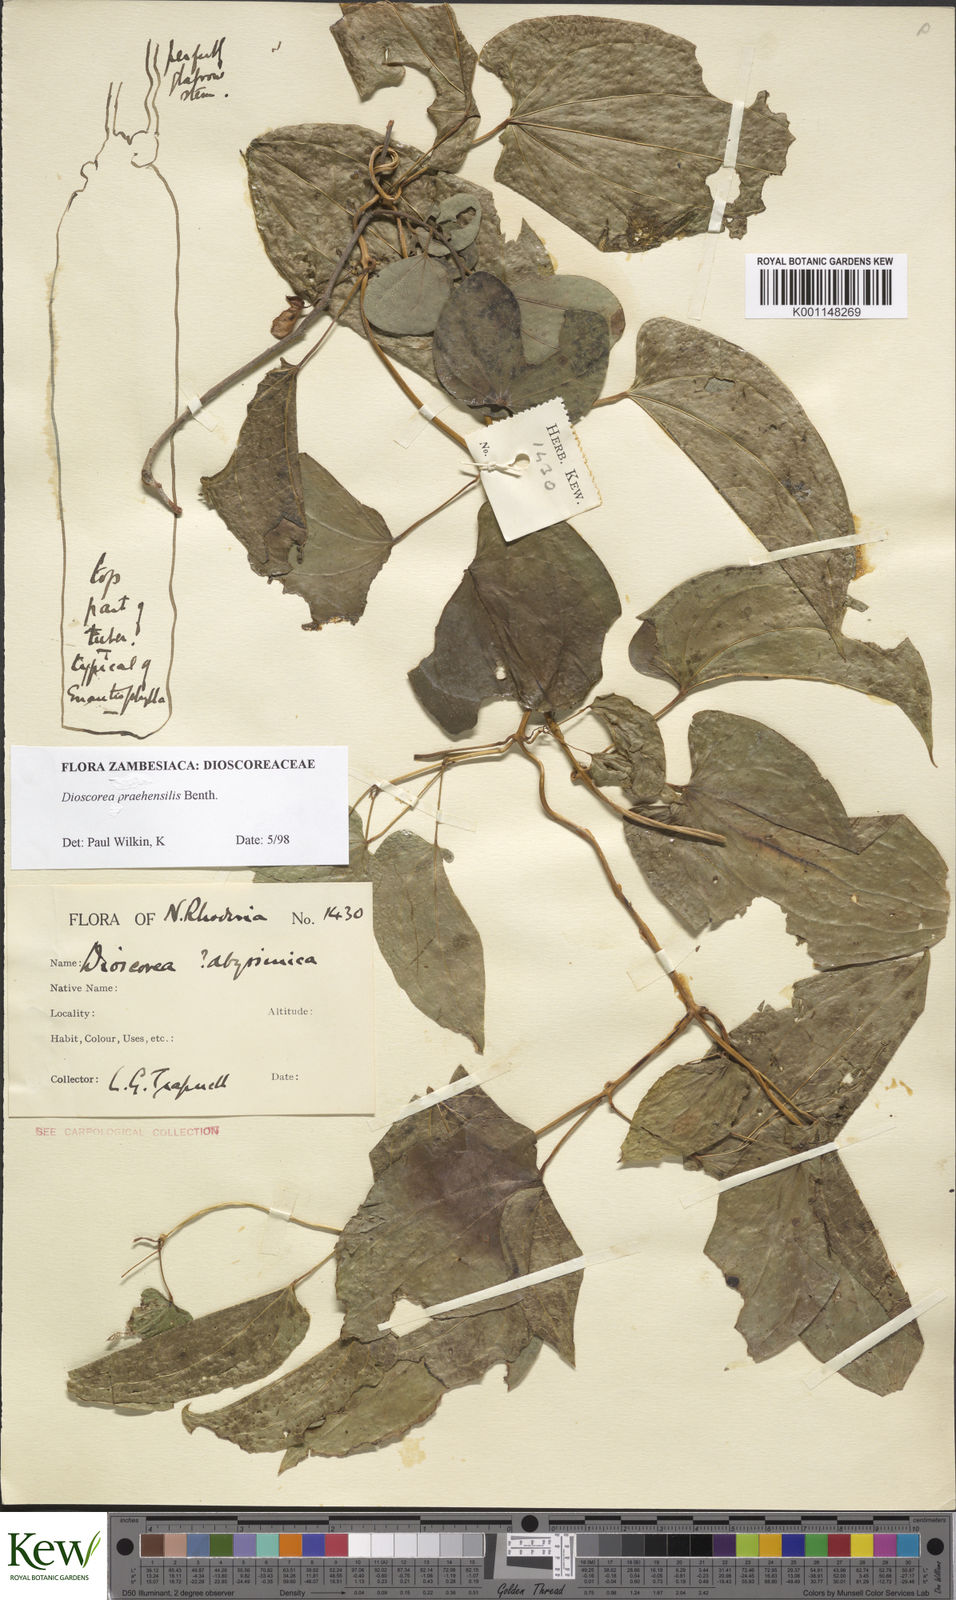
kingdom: Plantae
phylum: Tracheophyta
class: Liliopsida
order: Dioscoreales
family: Dioscoreaceae
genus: Dioscorea
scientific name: Dioscorea praehensilis
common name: Bush yam
